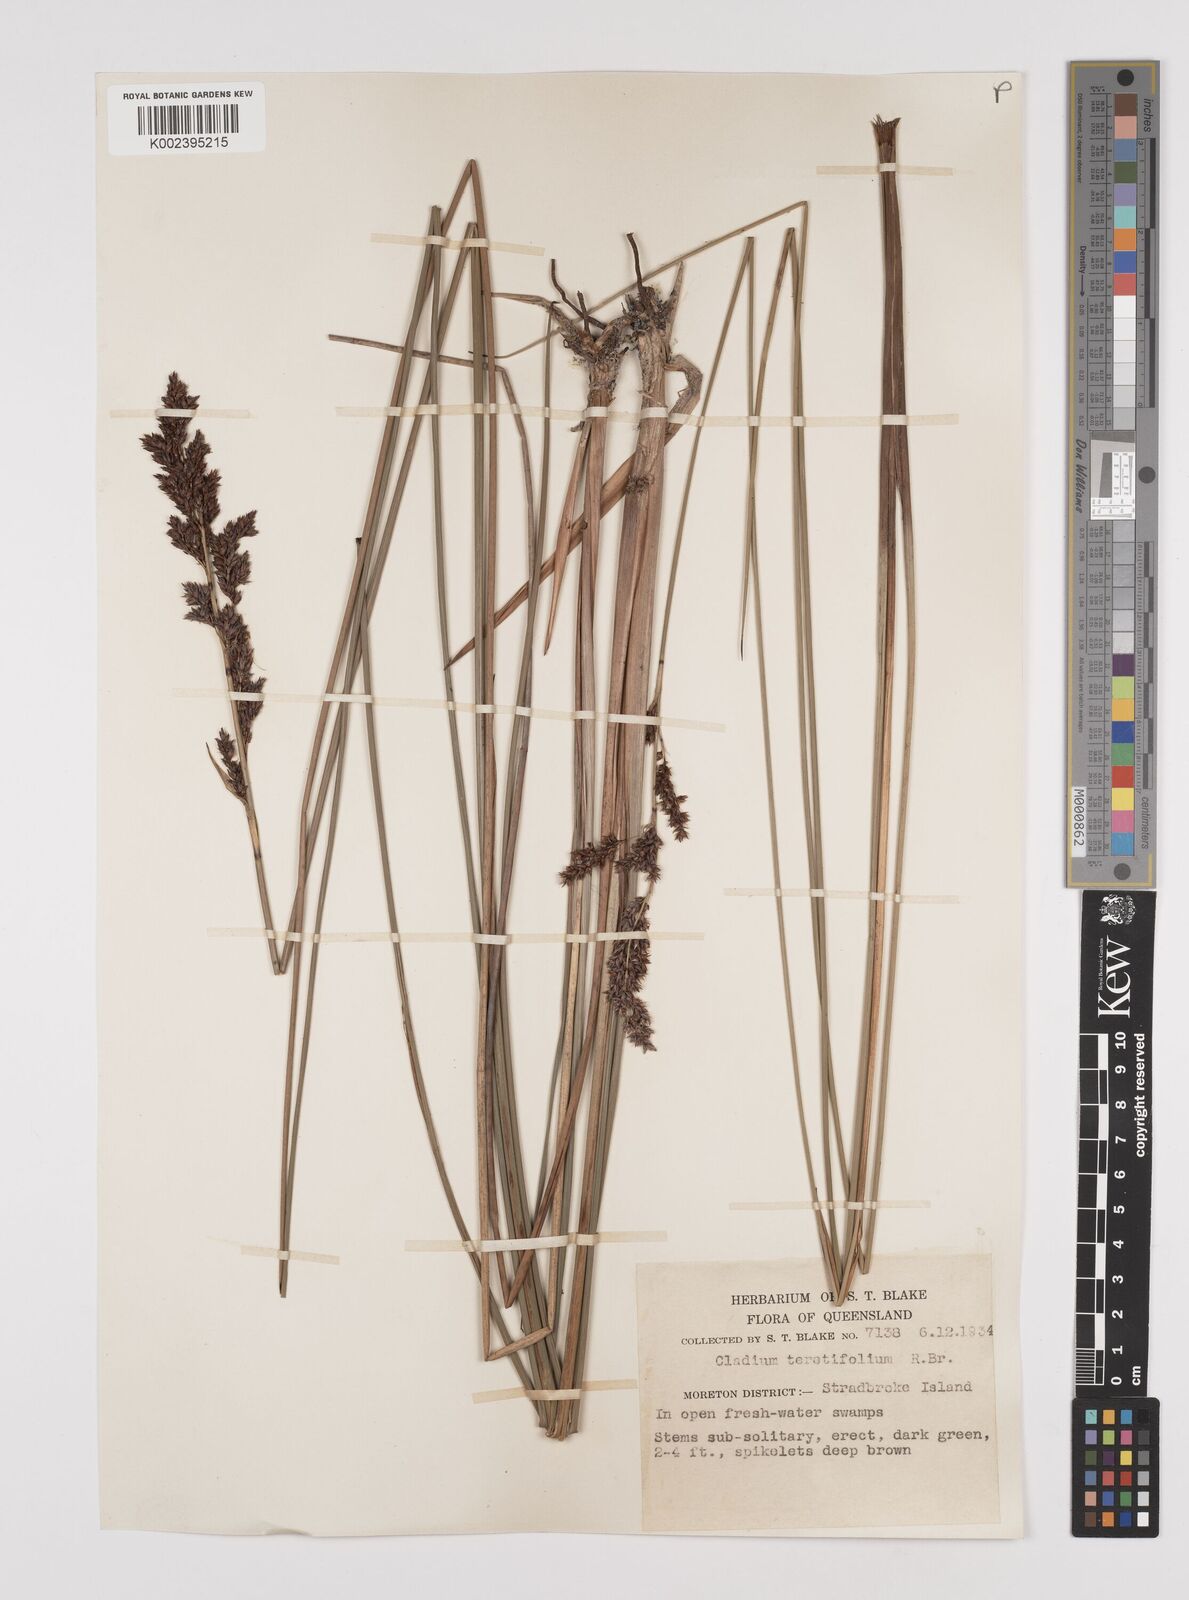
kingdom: Plantae
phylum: Tracheophyta
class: Liliopsida
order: Poales
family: Cyperaceae
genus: Machaerina
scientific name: Machaerina teretifolia
